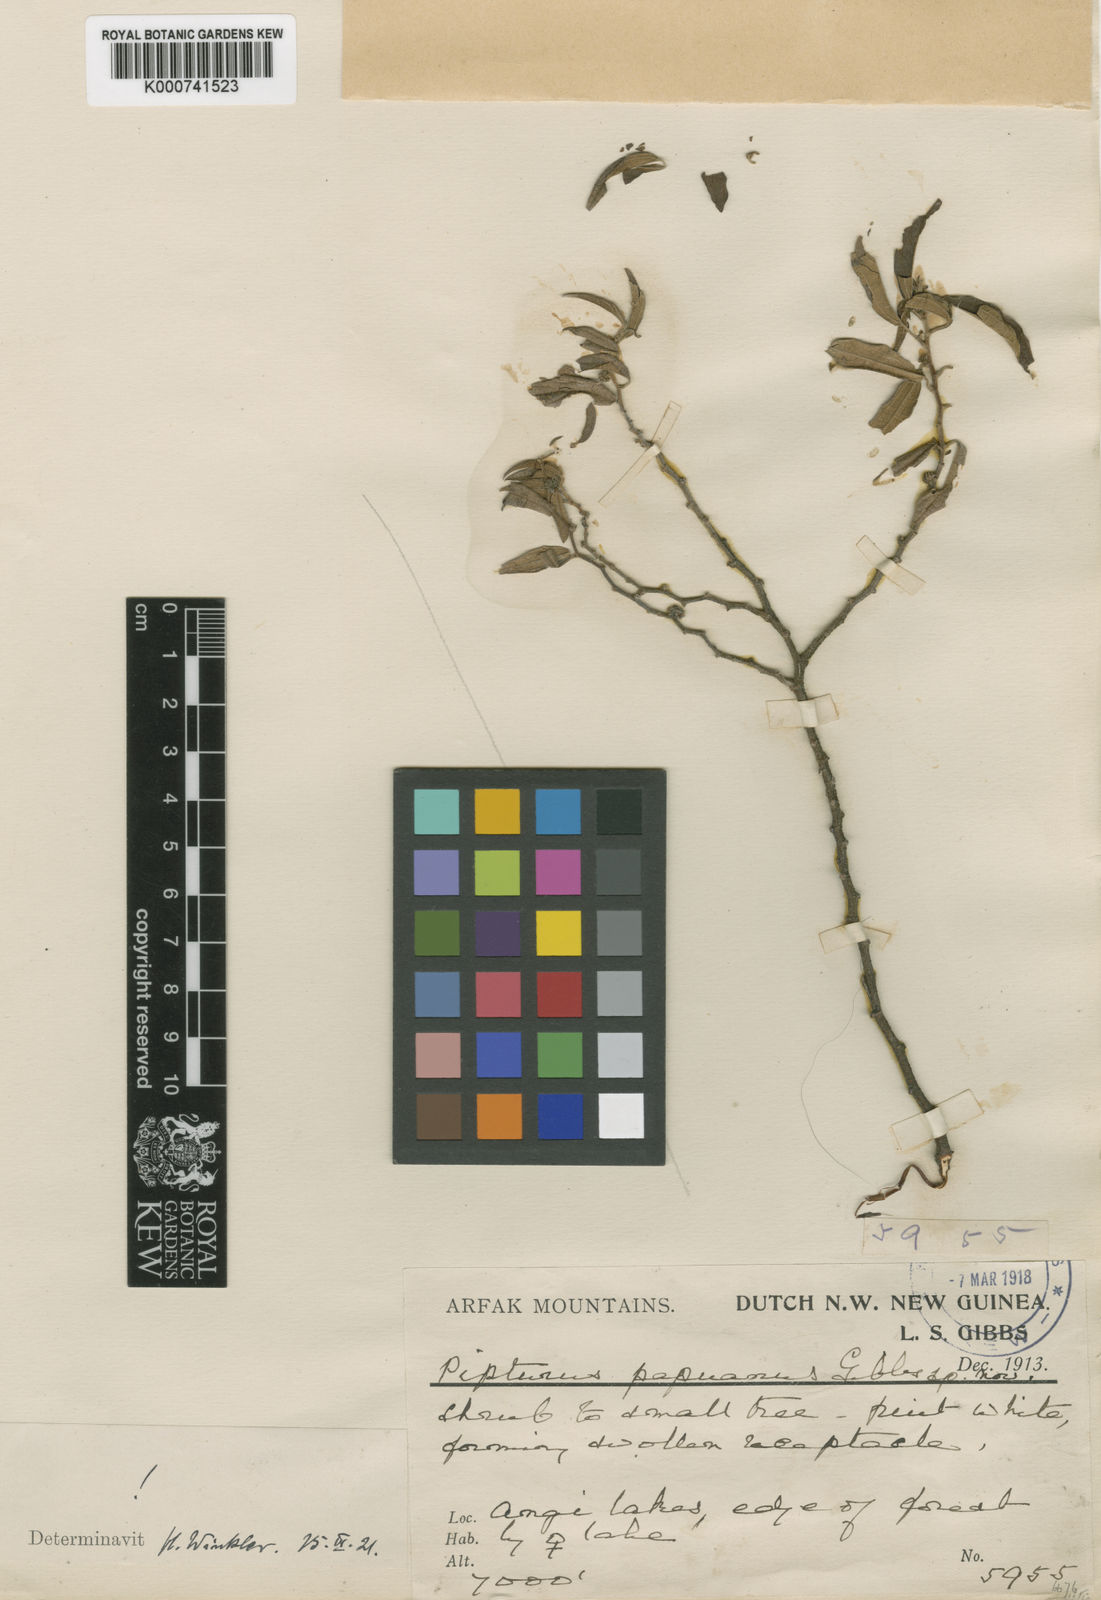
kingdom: Plantae
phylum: Tracheophyta
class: Magnoliopsida
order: Rosales
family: Urticaceae
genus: Pipturus
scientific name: Pipturus argenteus
